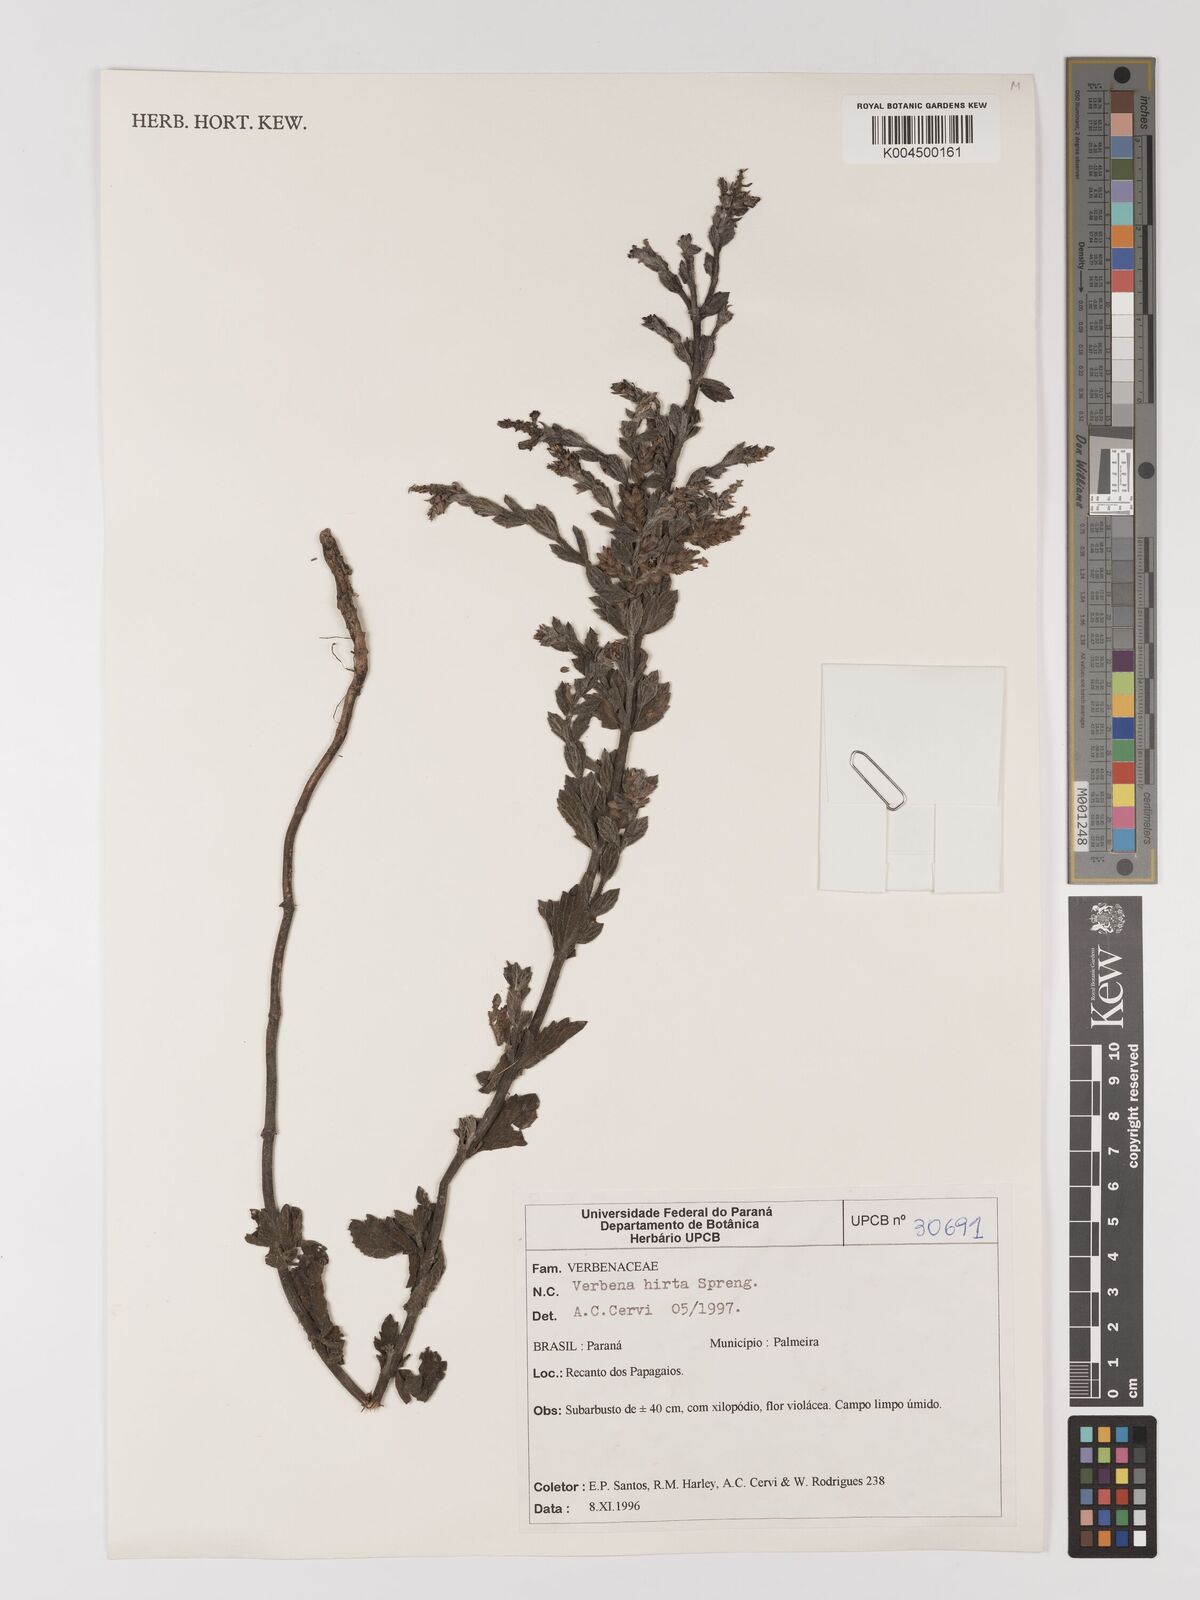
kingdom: Plantae
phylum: Tracheophyta
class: Magnoliopsida
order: Lamiales
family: Verbenaceae
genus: Verbena
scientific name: Verbena hirta
